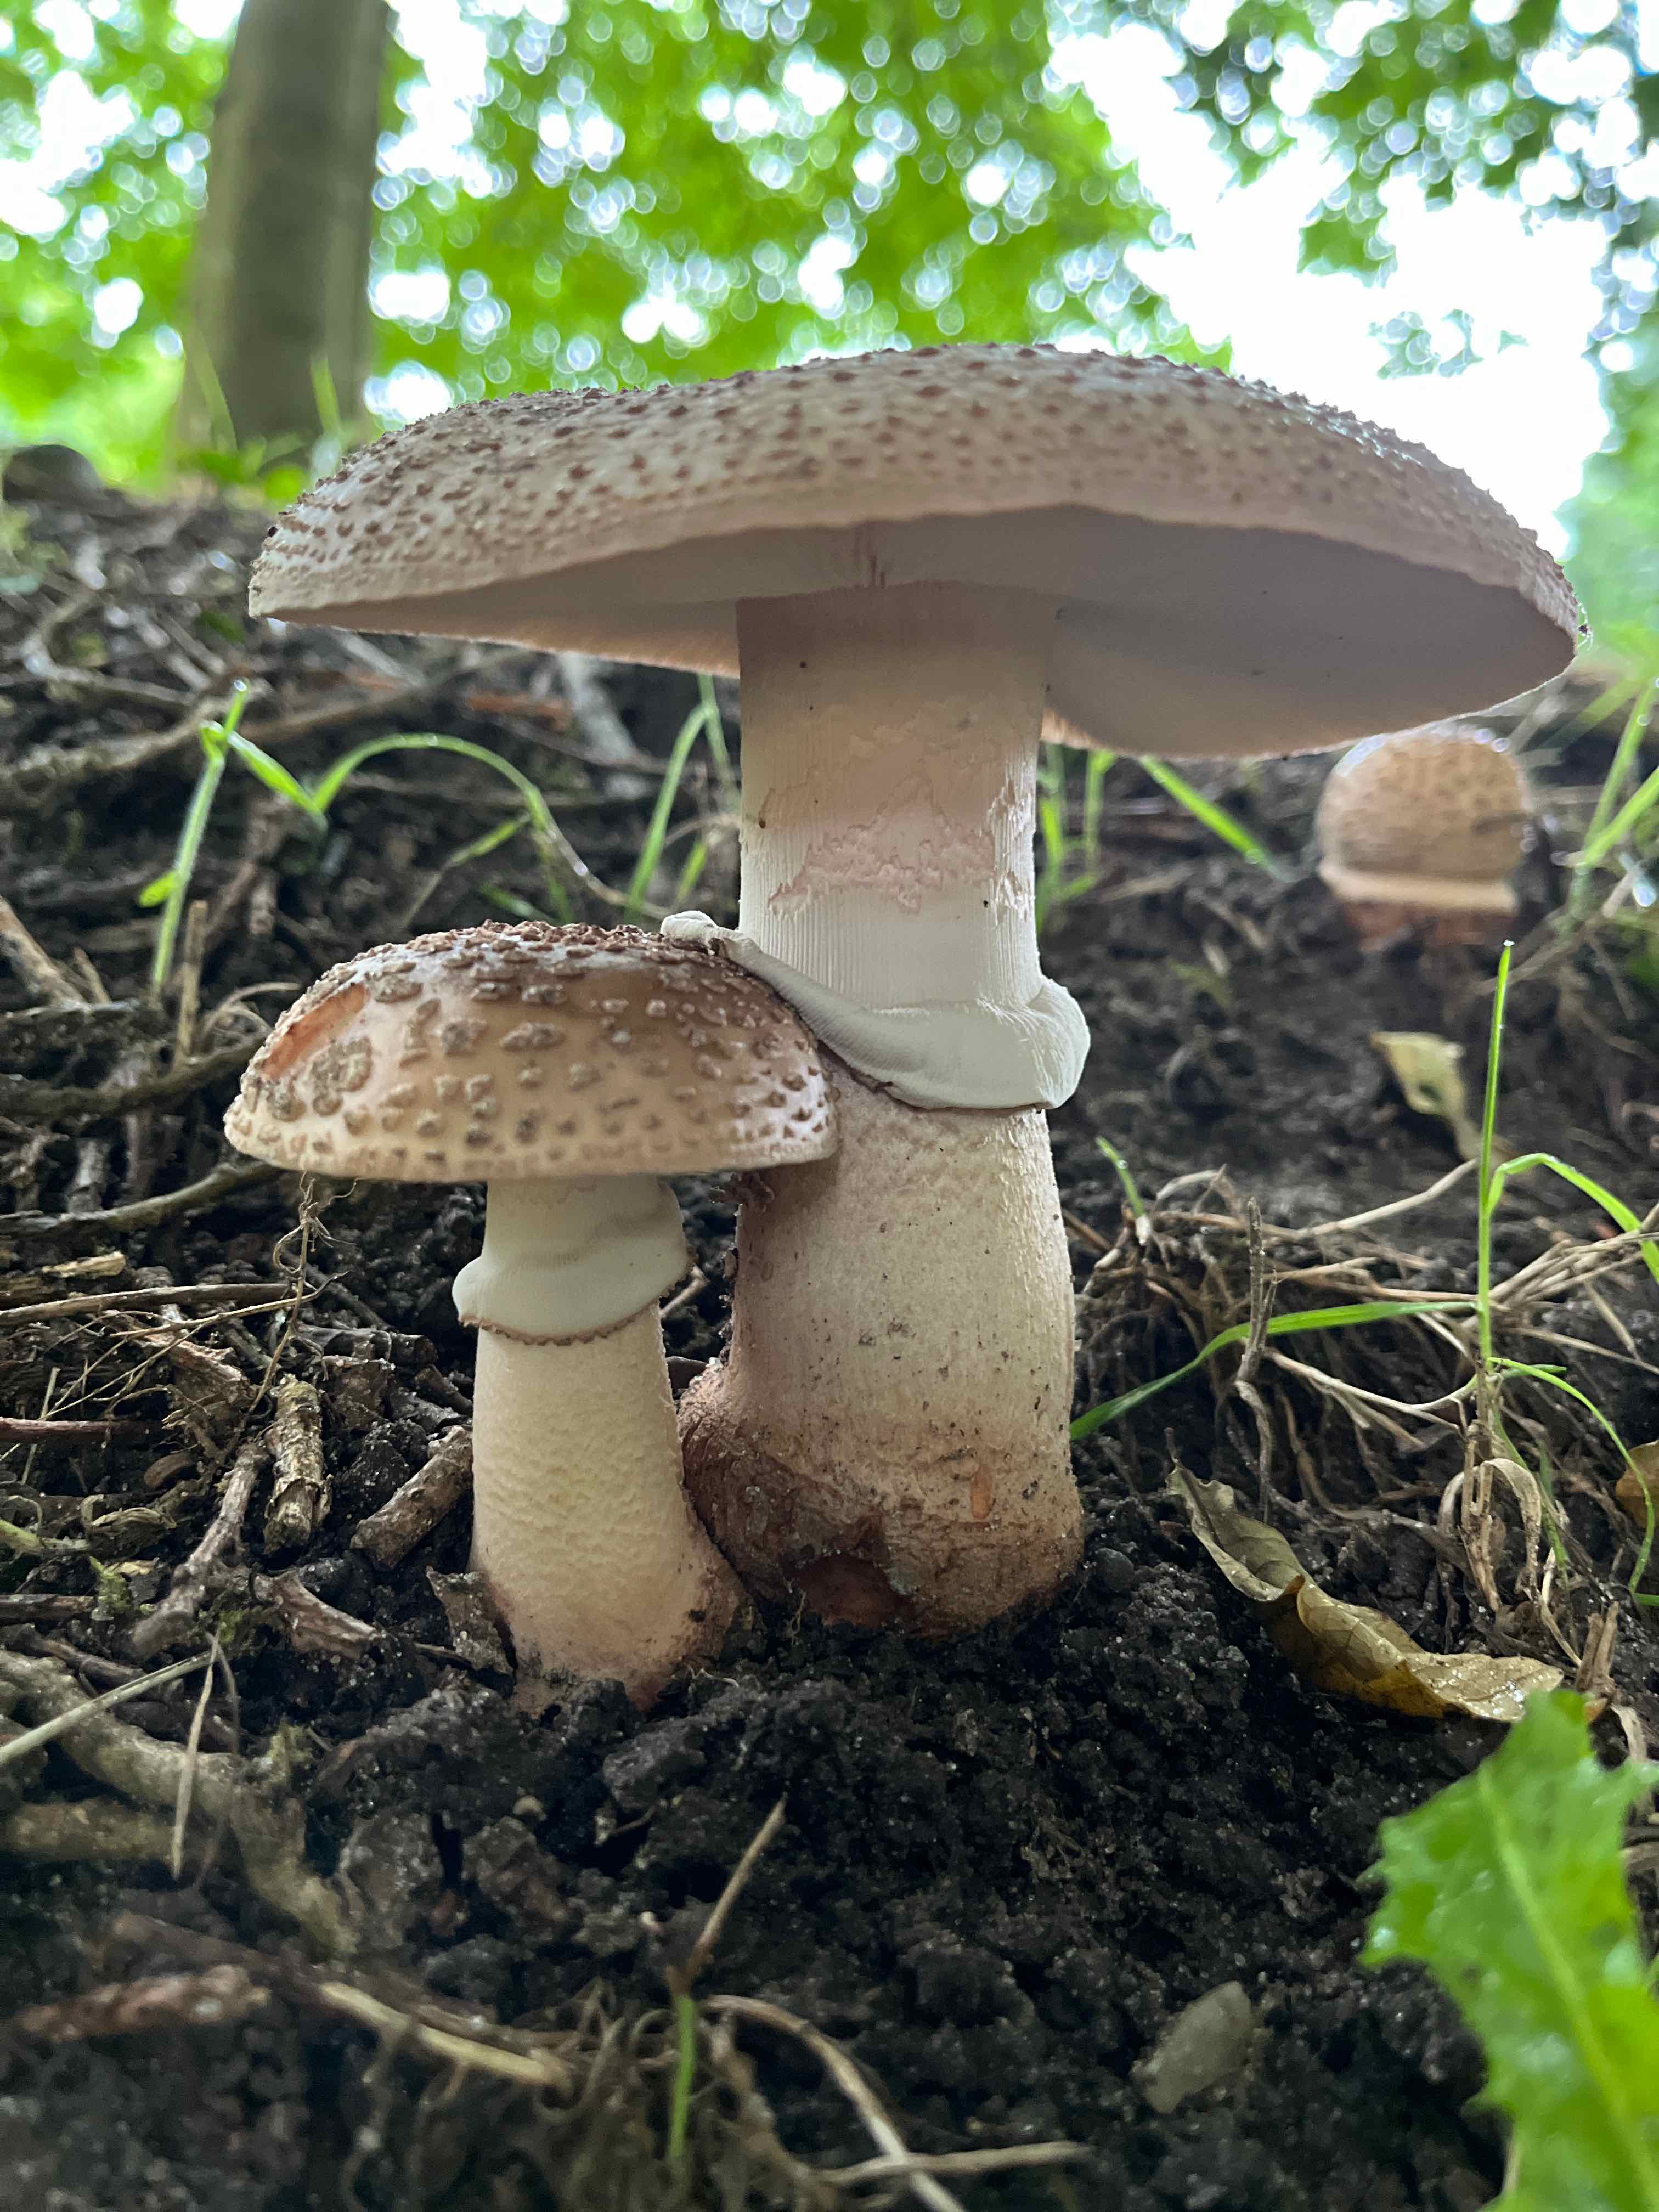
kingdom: Fungi
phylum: Basidiomycota
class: Agaricomycetes
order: Agaricales
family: Amanitaceae
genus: Amanita
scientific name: Amanita rubescens
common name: rødmende fluesvamp
